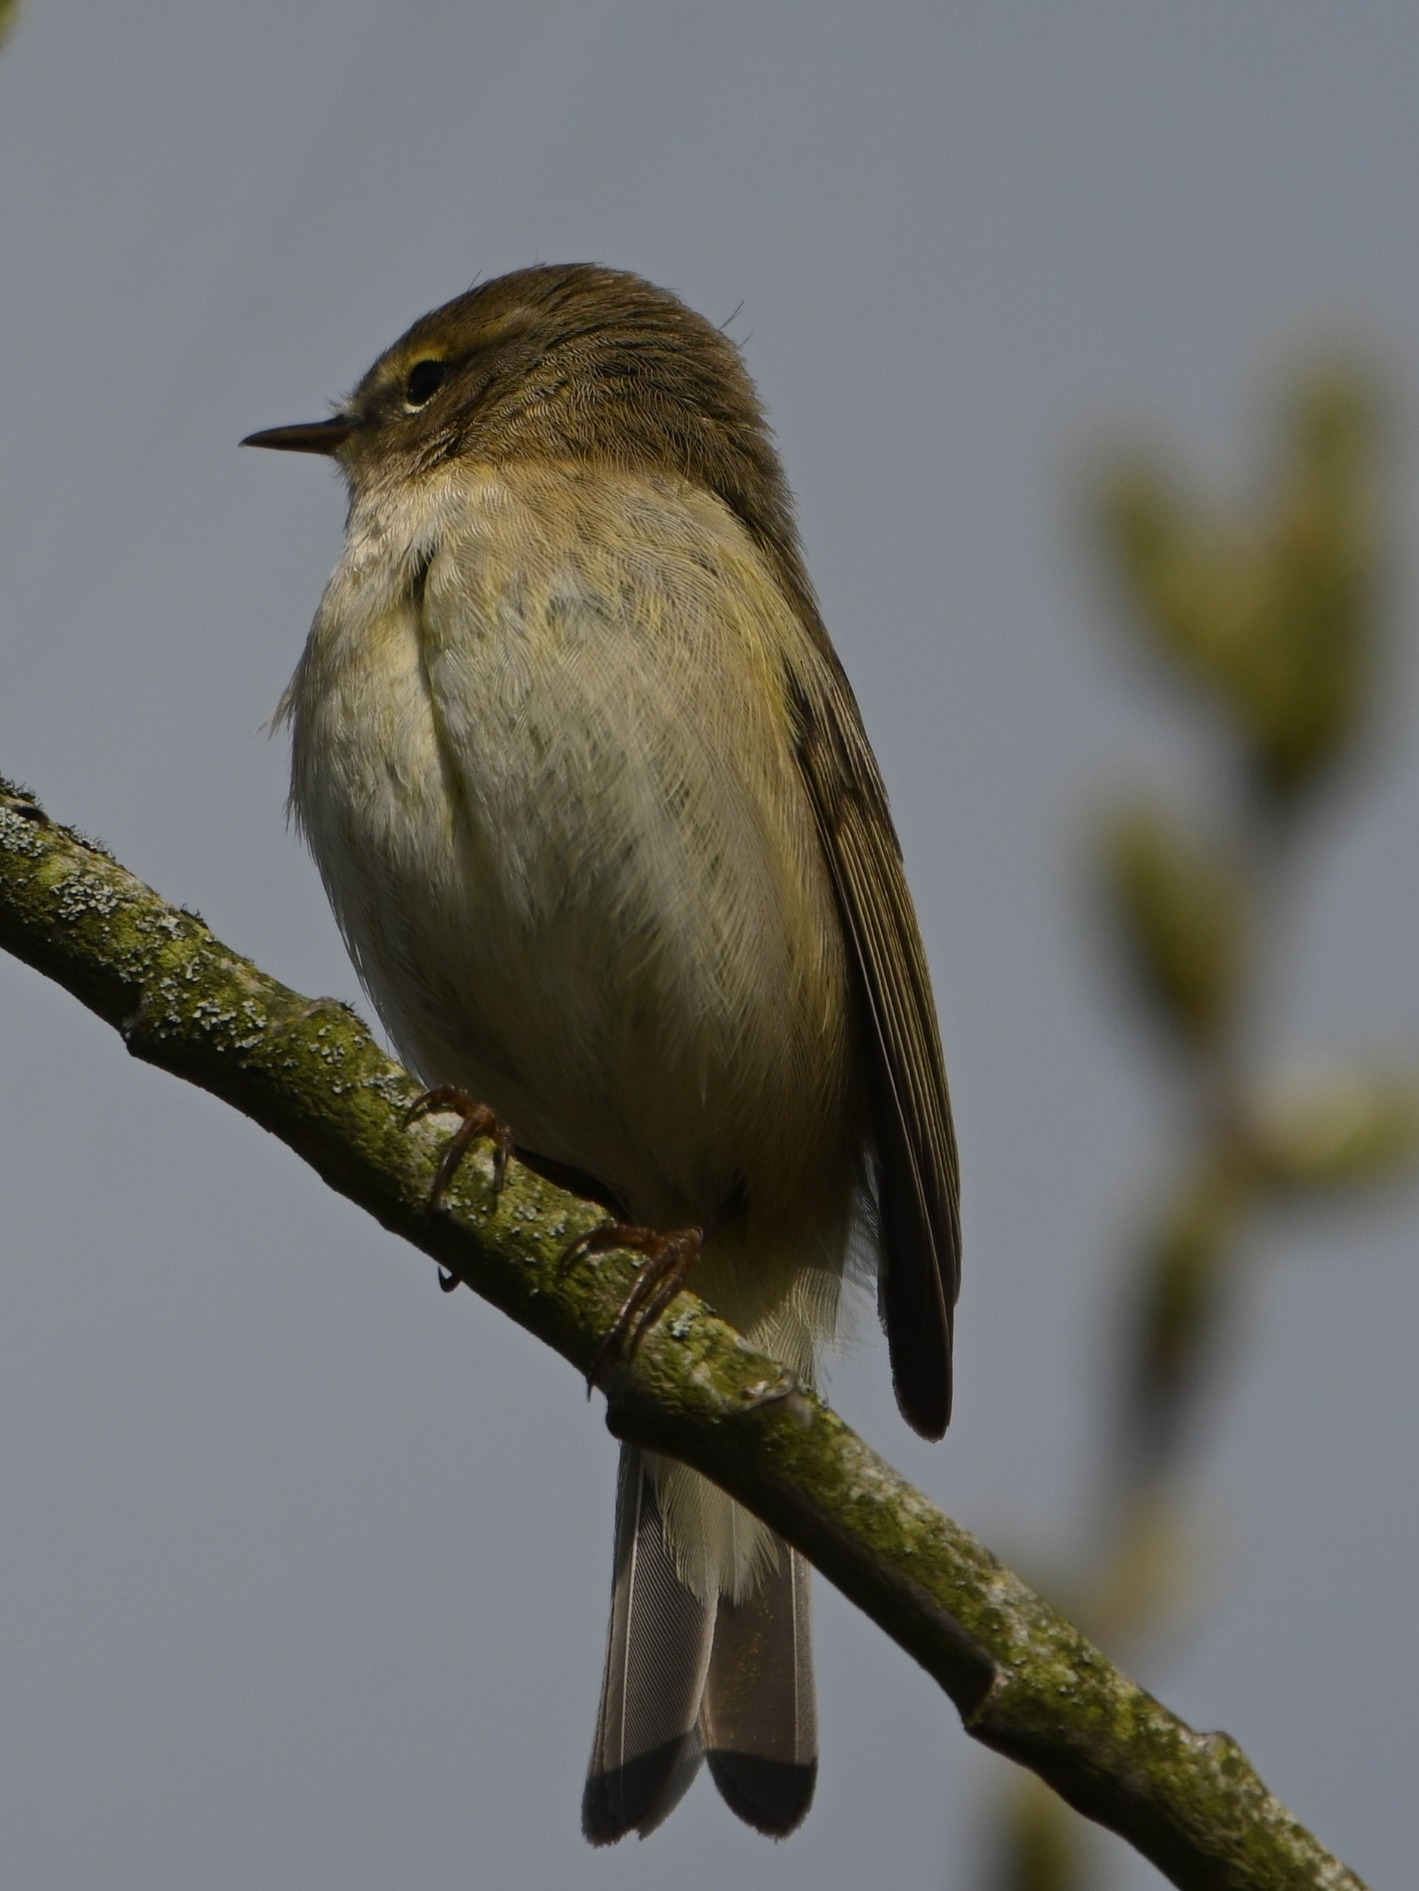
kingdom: Animalia
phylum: Chordata
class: Aves
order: Passeriformes
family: Phylloscopidae
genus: Phylloscopus
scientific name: Phylloscopus collybita
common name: Gransanger
